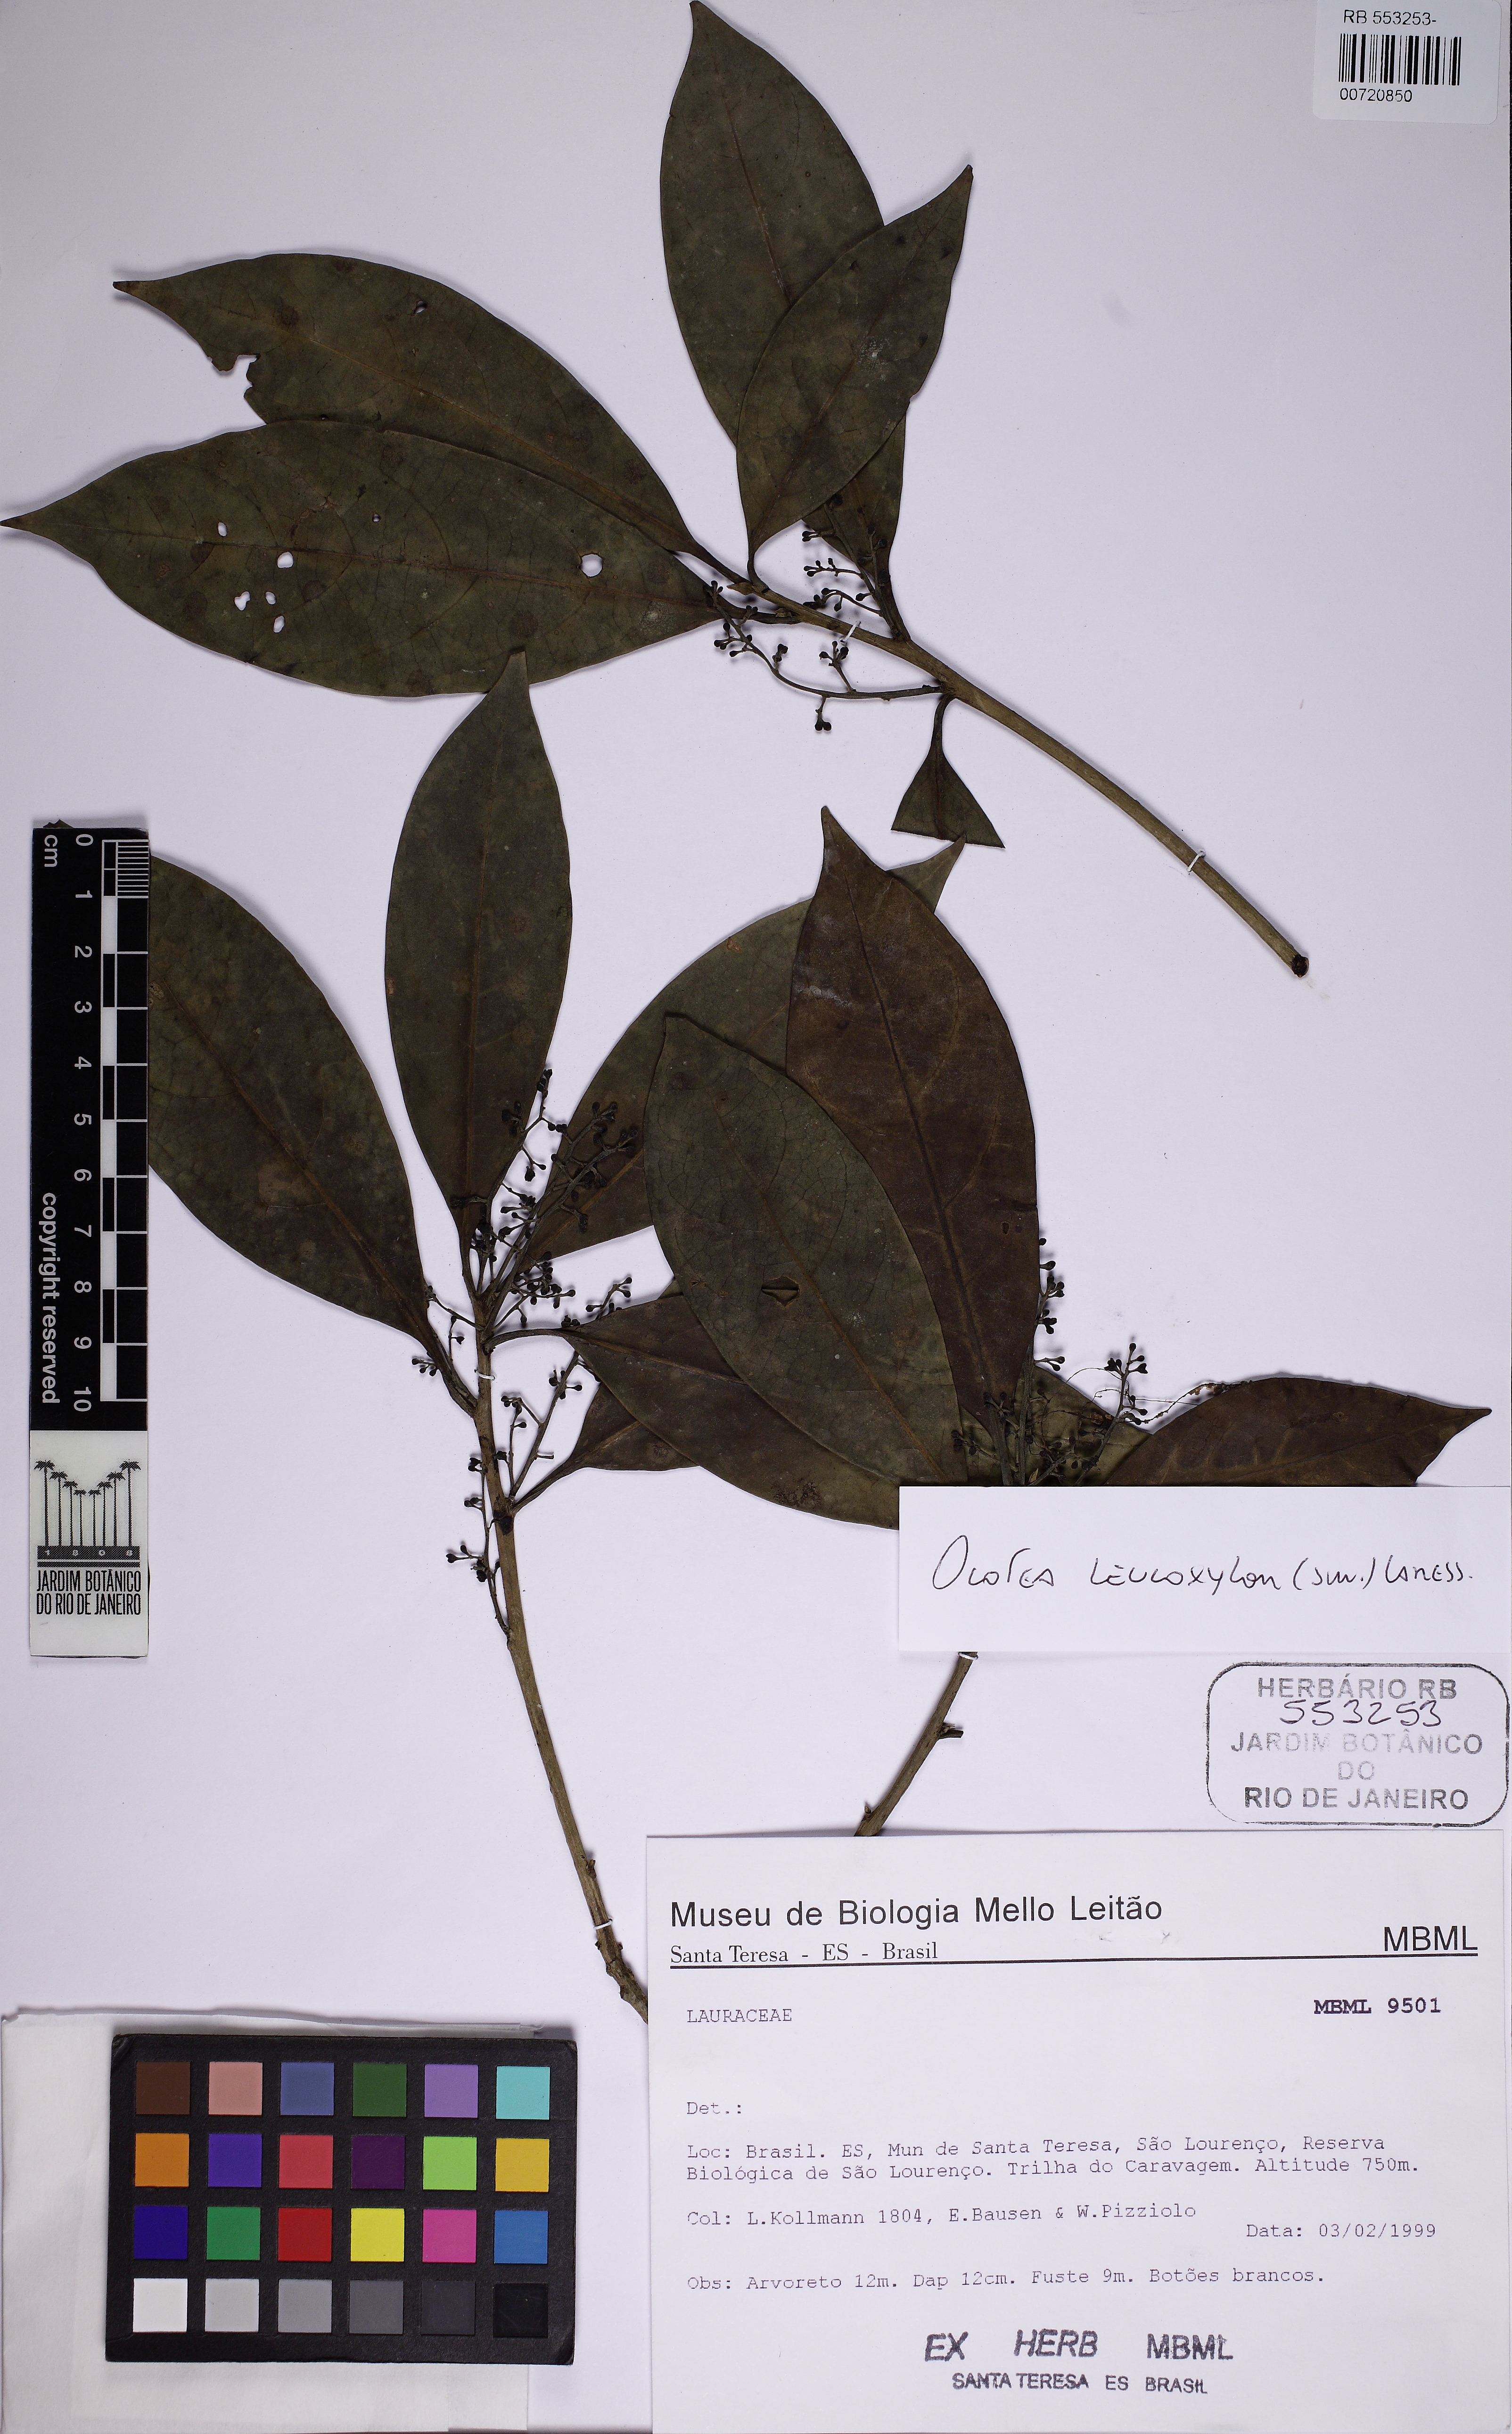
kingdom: Plantae
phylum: Tracheophyta
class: Magnoliopsida
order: Laurales
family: Lauraceae
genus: Ocotea
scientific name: Ocotea leucoxylon
